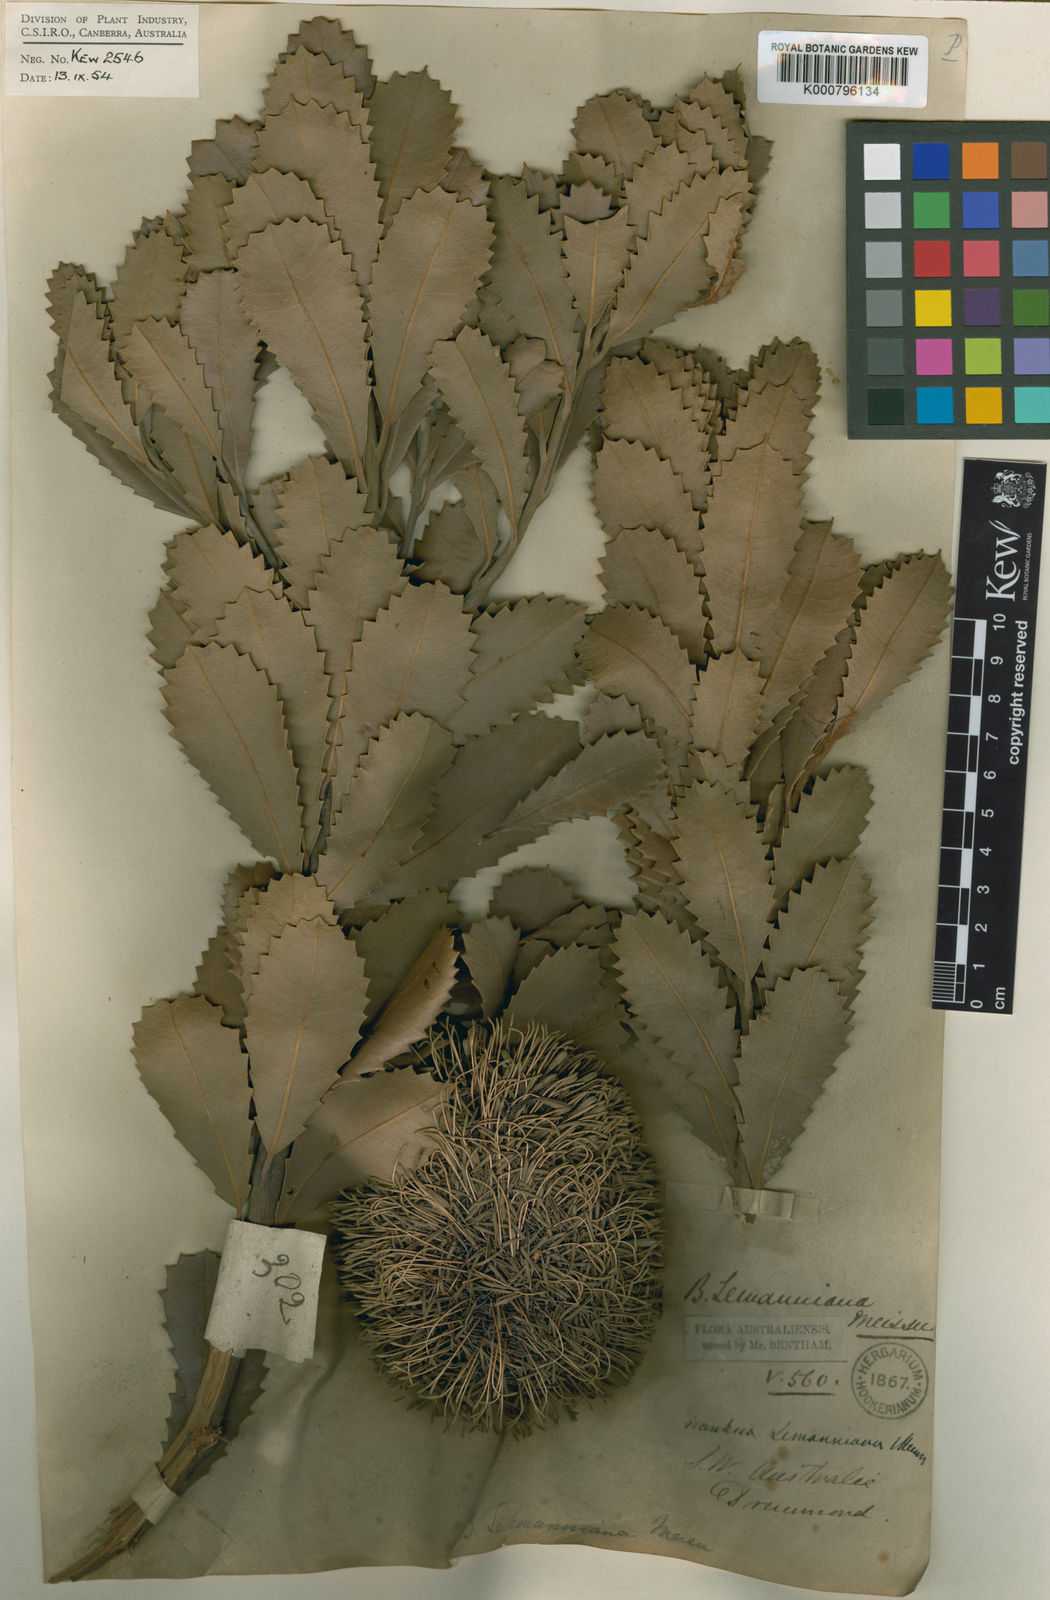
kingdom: Plantae
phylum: Tracheophyta
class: Magnoliopsida
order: Proteales
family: Proteaceae
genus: Banksia
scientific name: Banksia lemanniana
